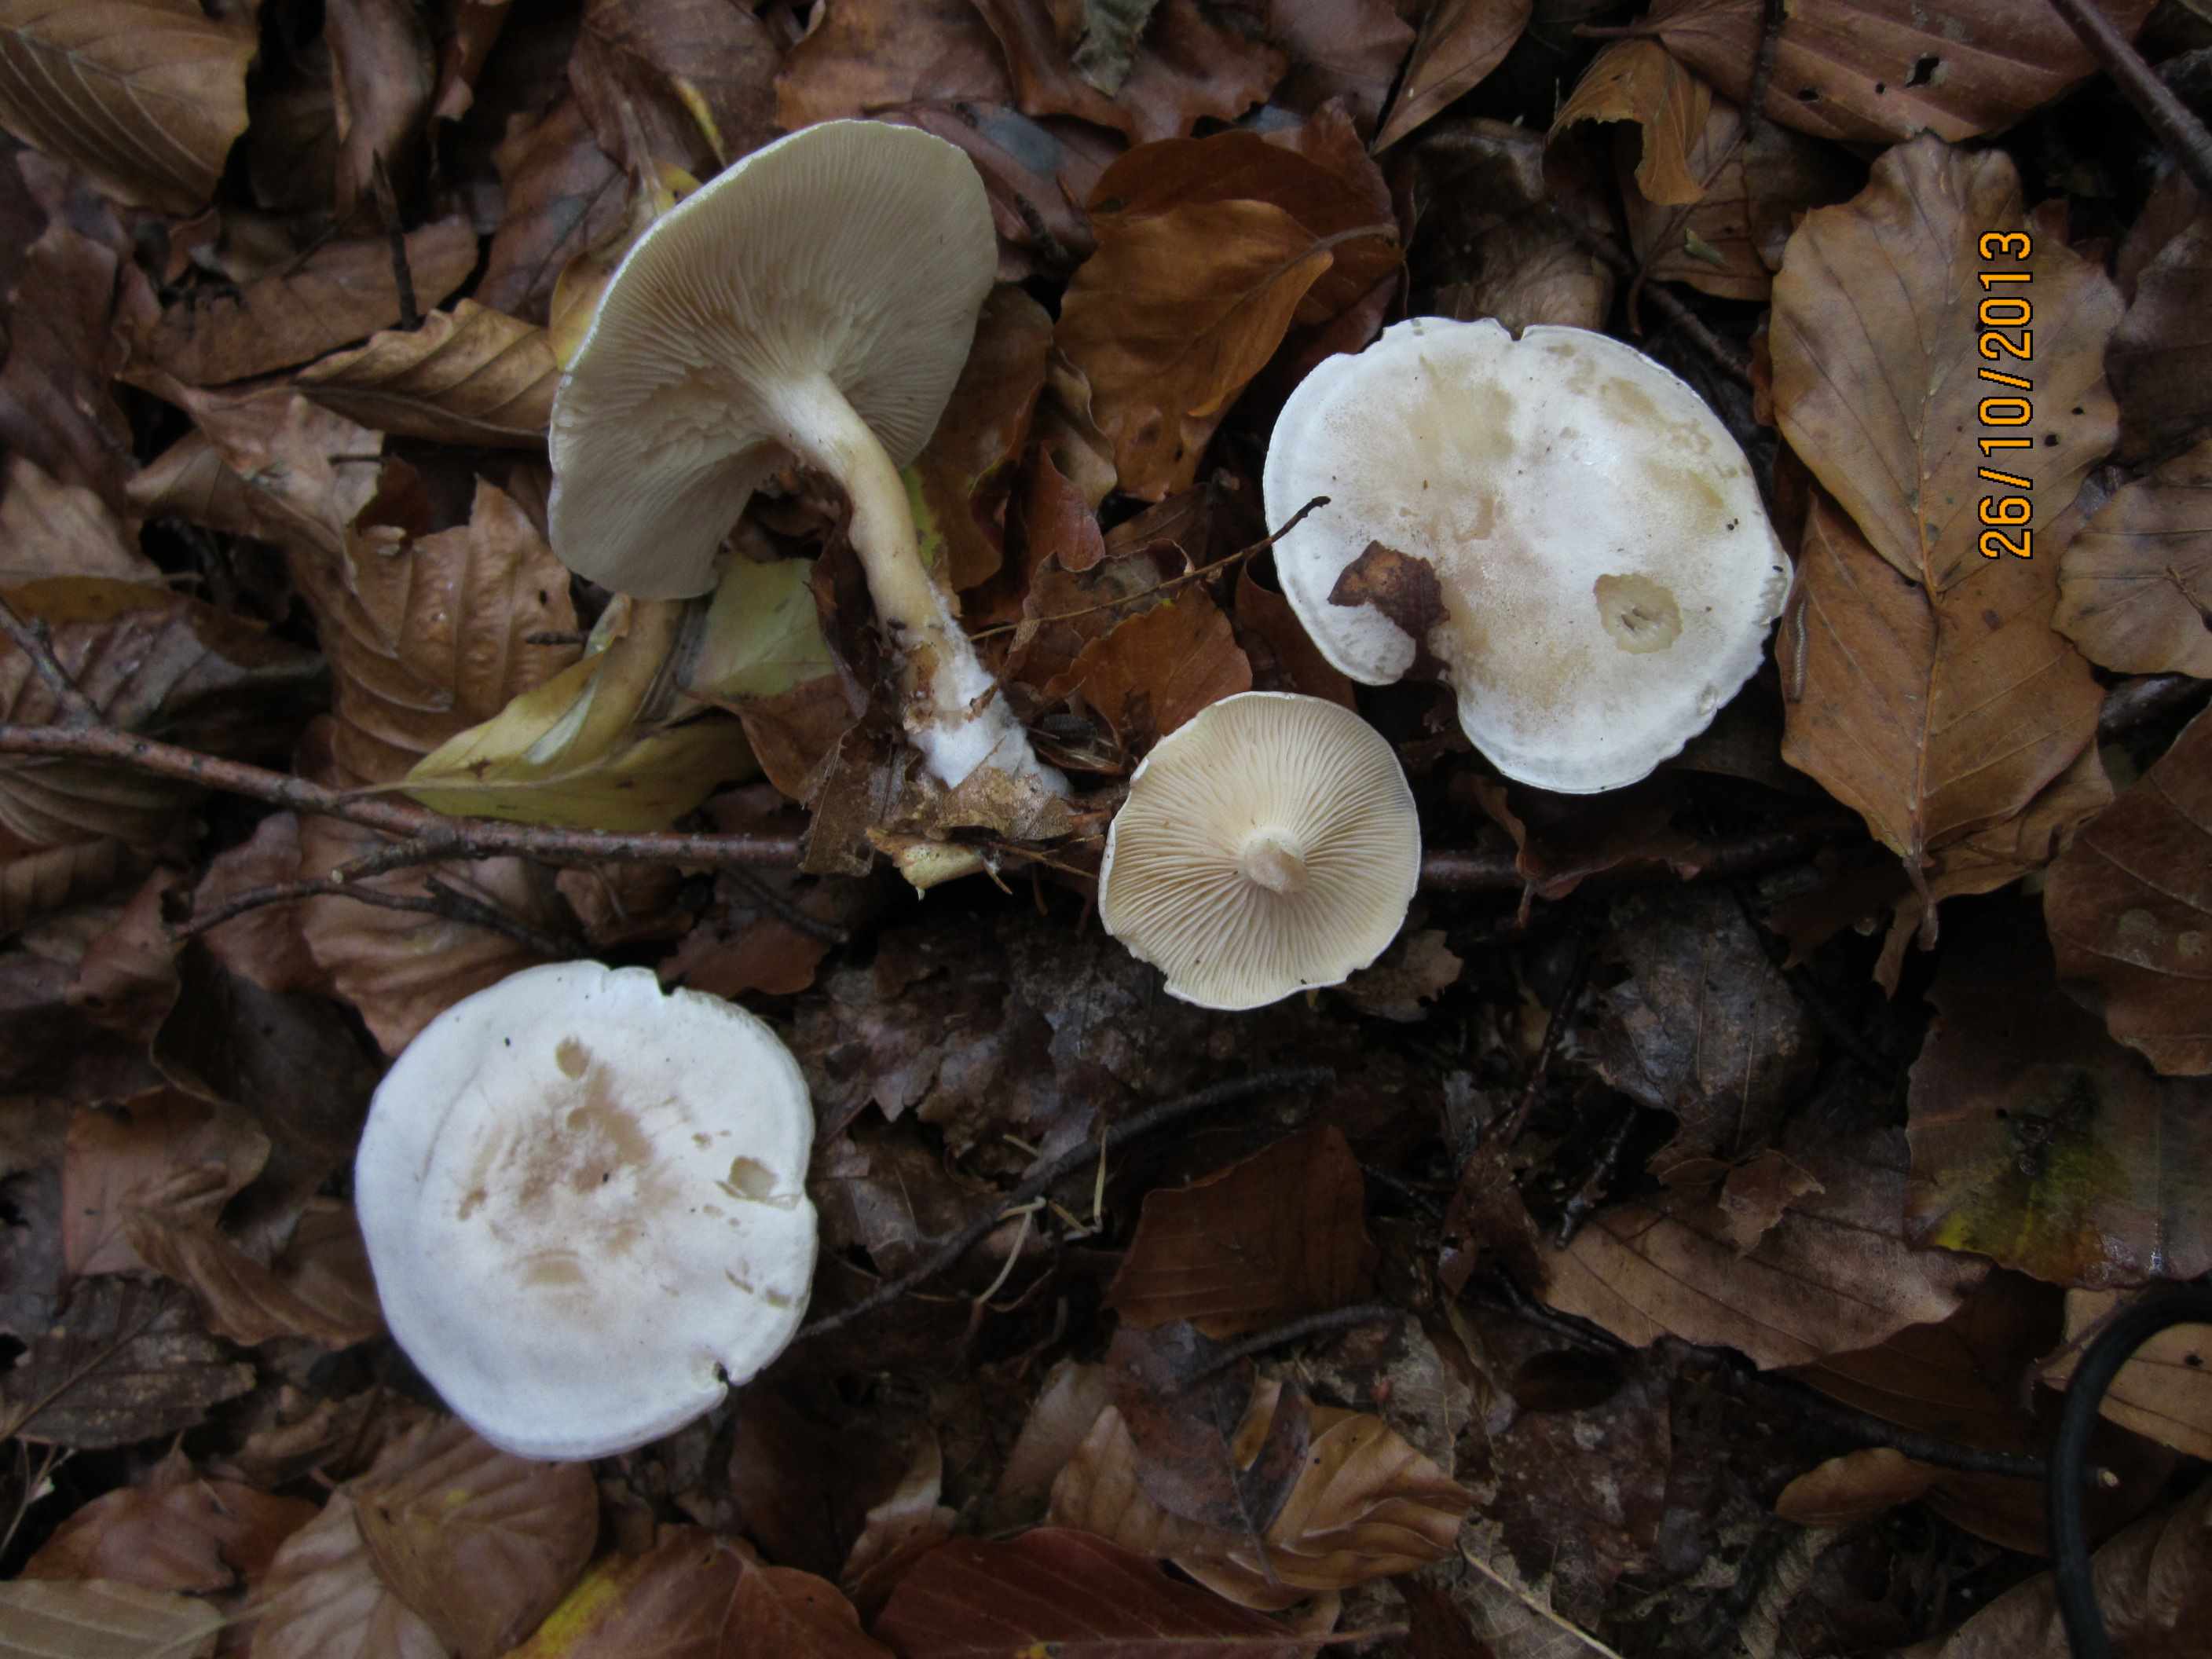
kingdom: Fungi
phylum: Basidiomycota
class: Agaricomycetes
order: Agaricales
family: Tricholomataceae
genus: Clitocybe
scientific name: Clitocybe phyllophila
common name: løv-tragthat
